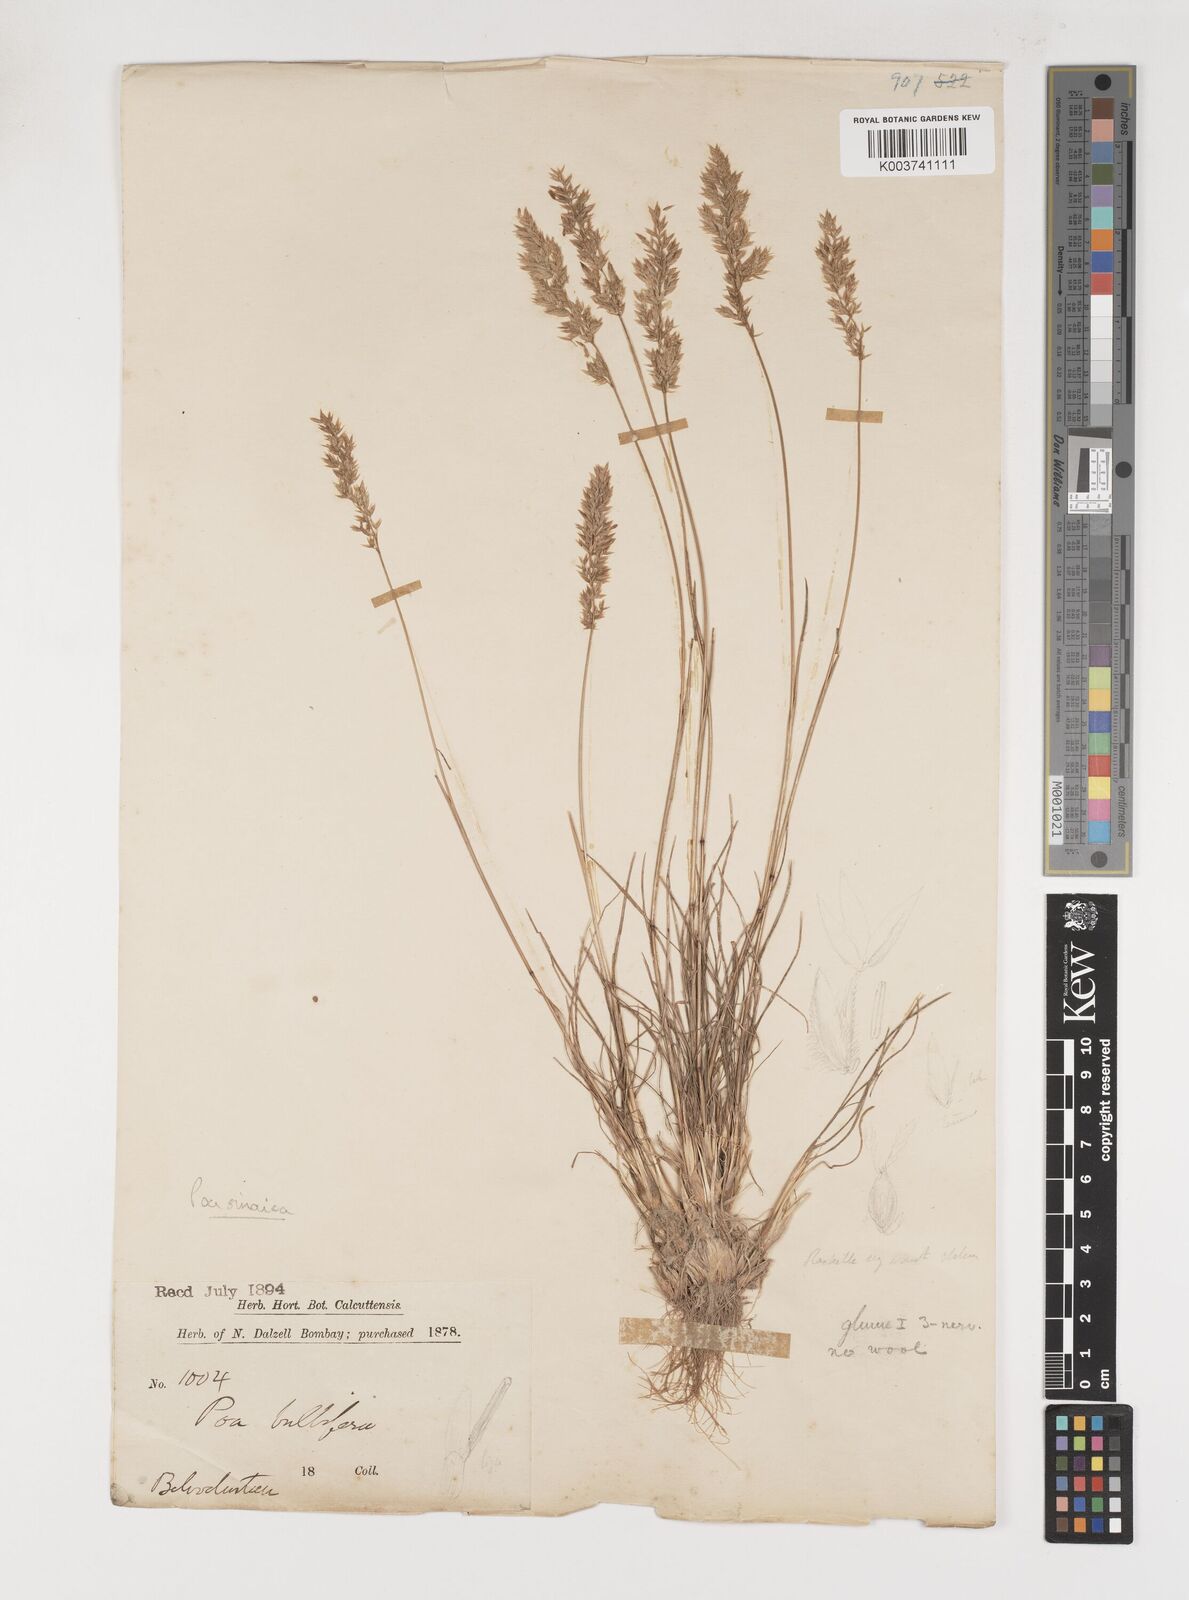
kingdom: Plantae
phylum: Tracheophyta
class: Liliopsida
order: Poales
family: Poaceae
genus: Poa
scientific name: Poa sinaica
